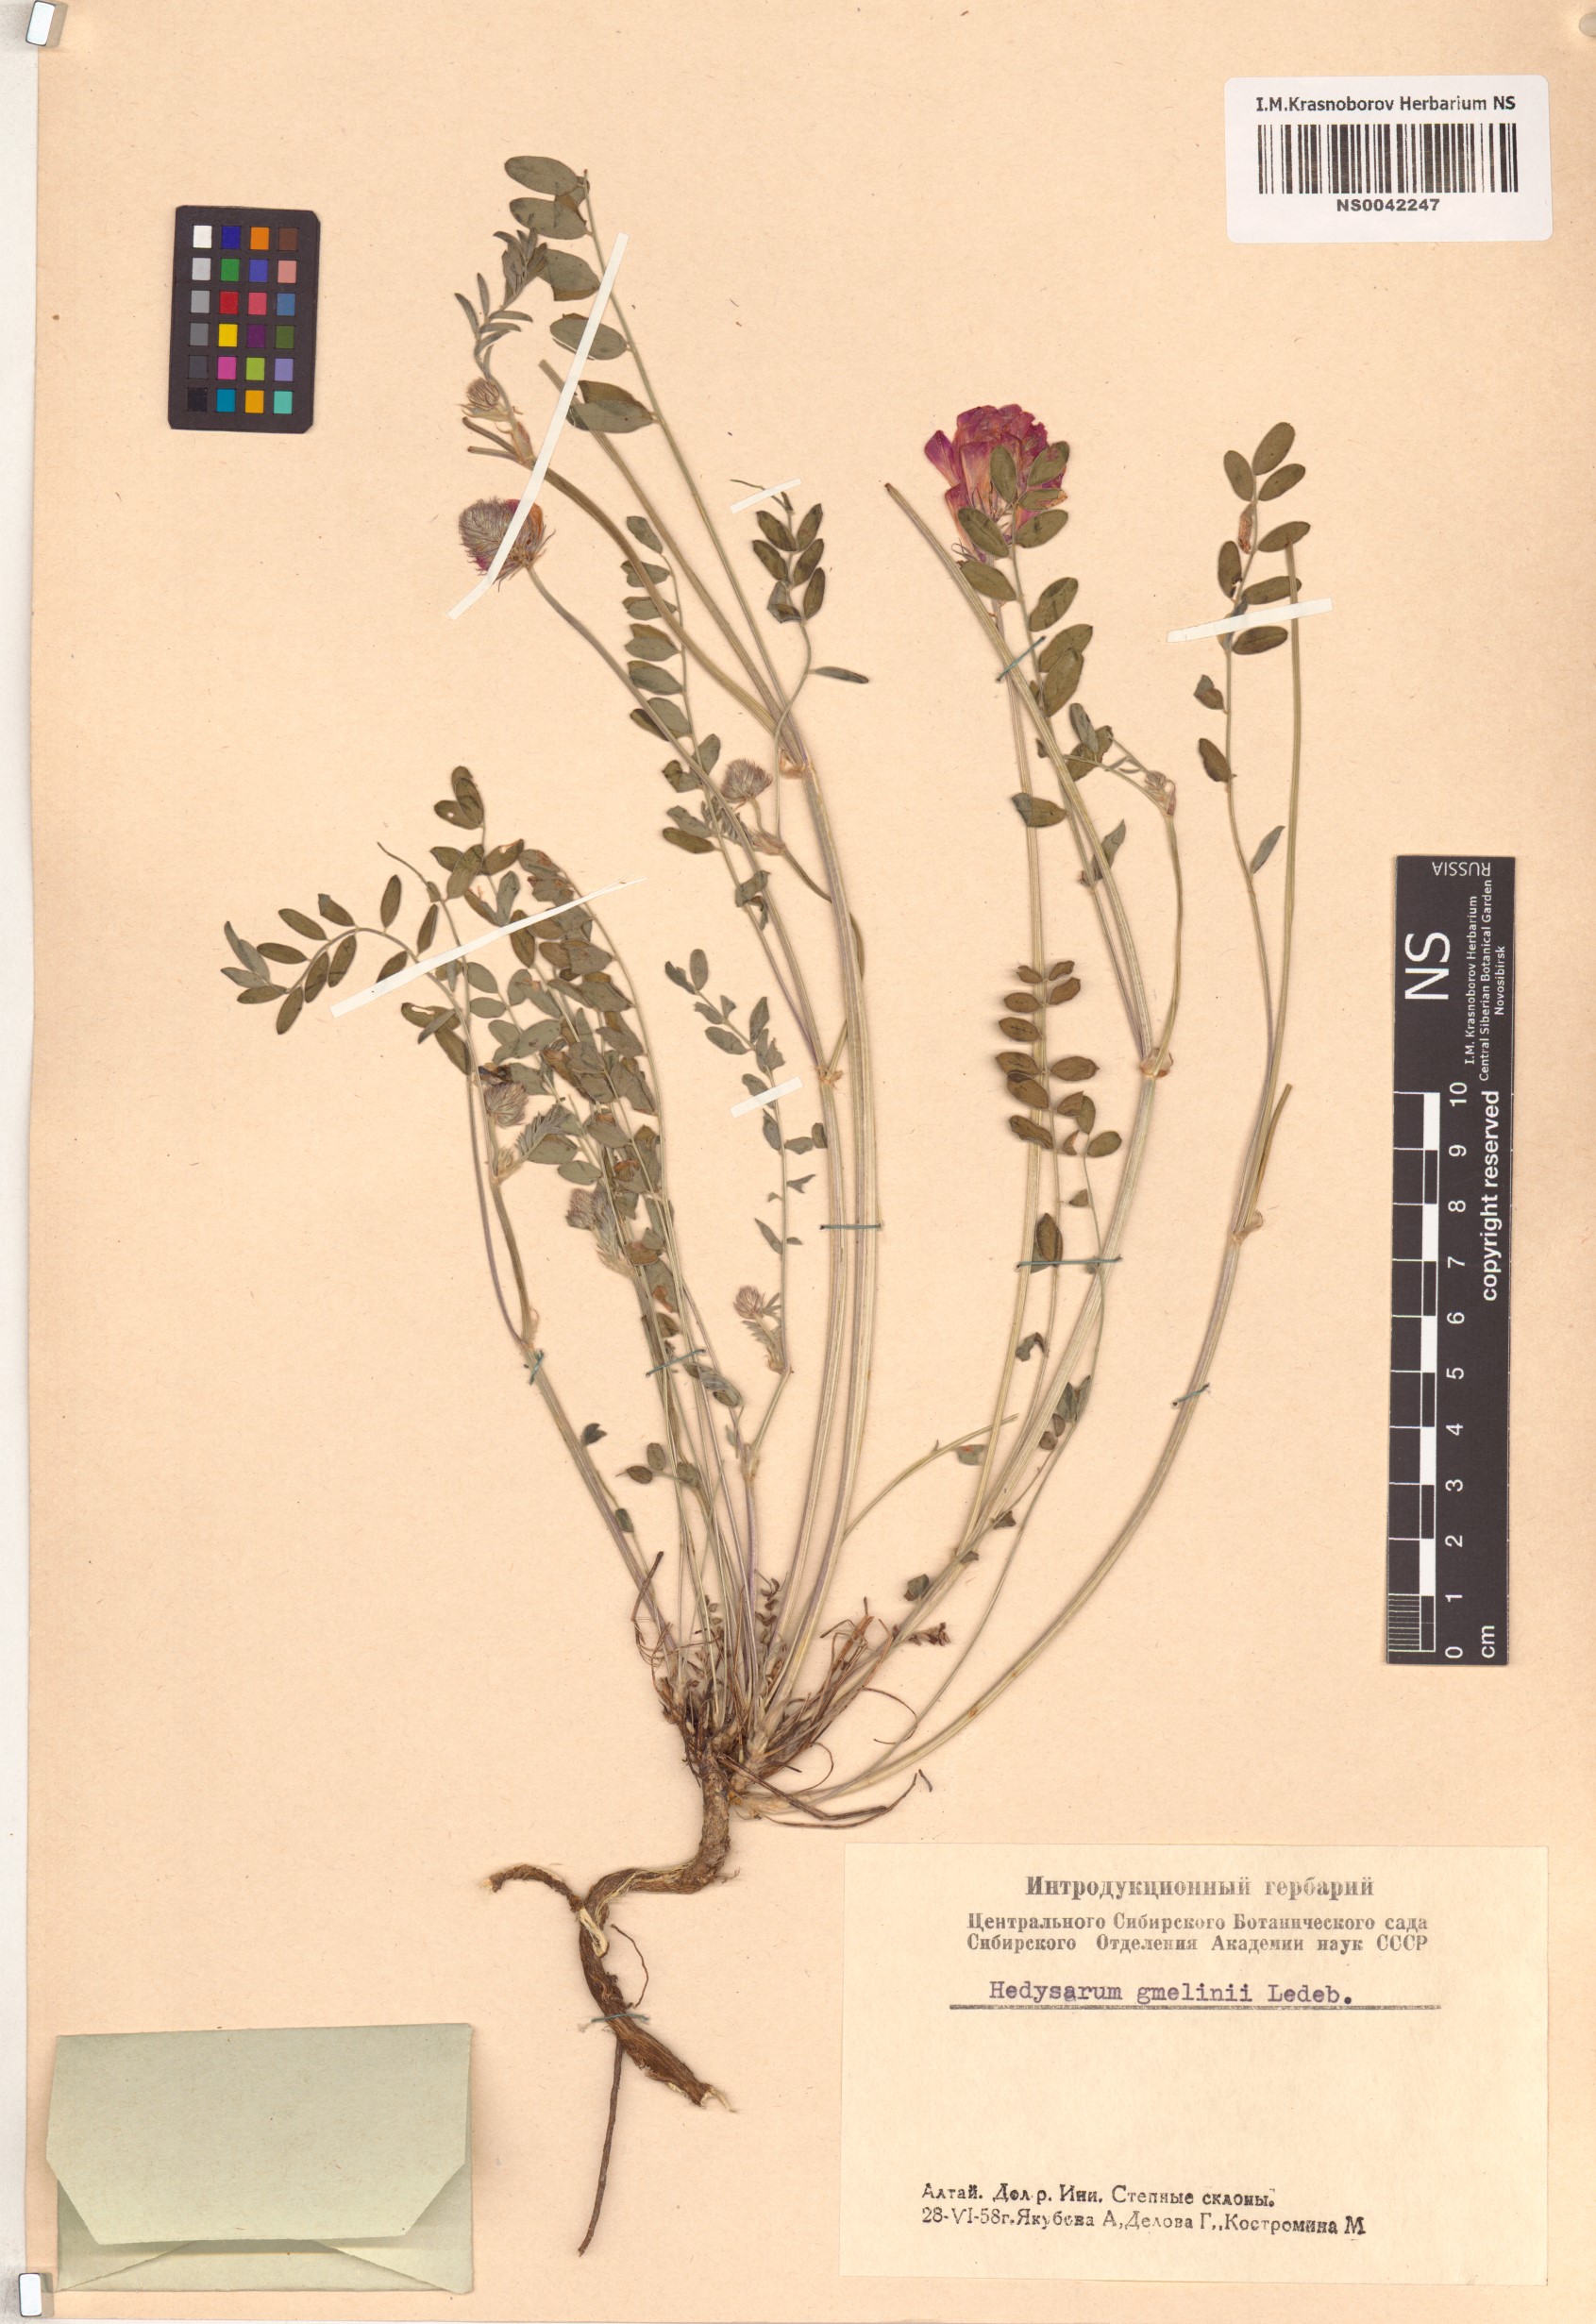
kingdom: Plantae
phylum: Tracheophyta
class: Magnoliopsida
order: Fabales
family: Fabaceae
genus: Hedysarum
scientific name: Hedysarum gmelinii
